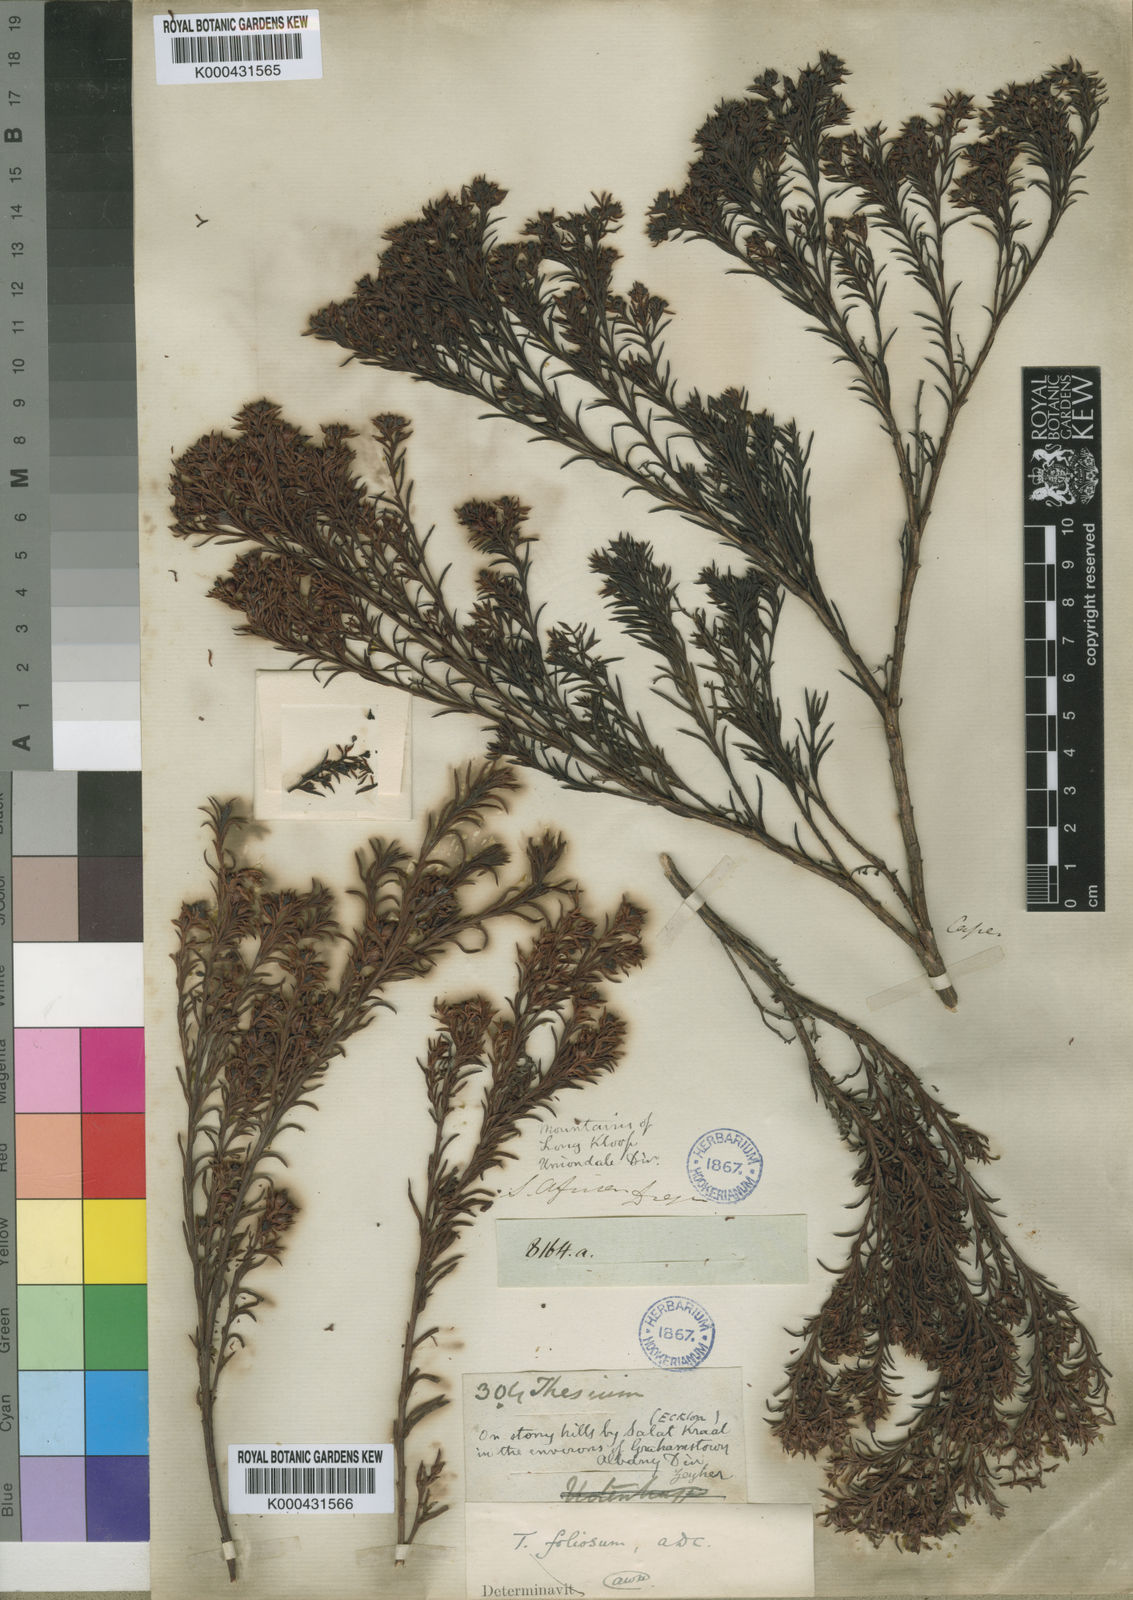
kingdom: Plantae
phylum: Tracheophyta
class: Magnoliopsida
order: Santalales
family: Thesiaceae
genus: Thesium
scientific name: Thesium foliosum
